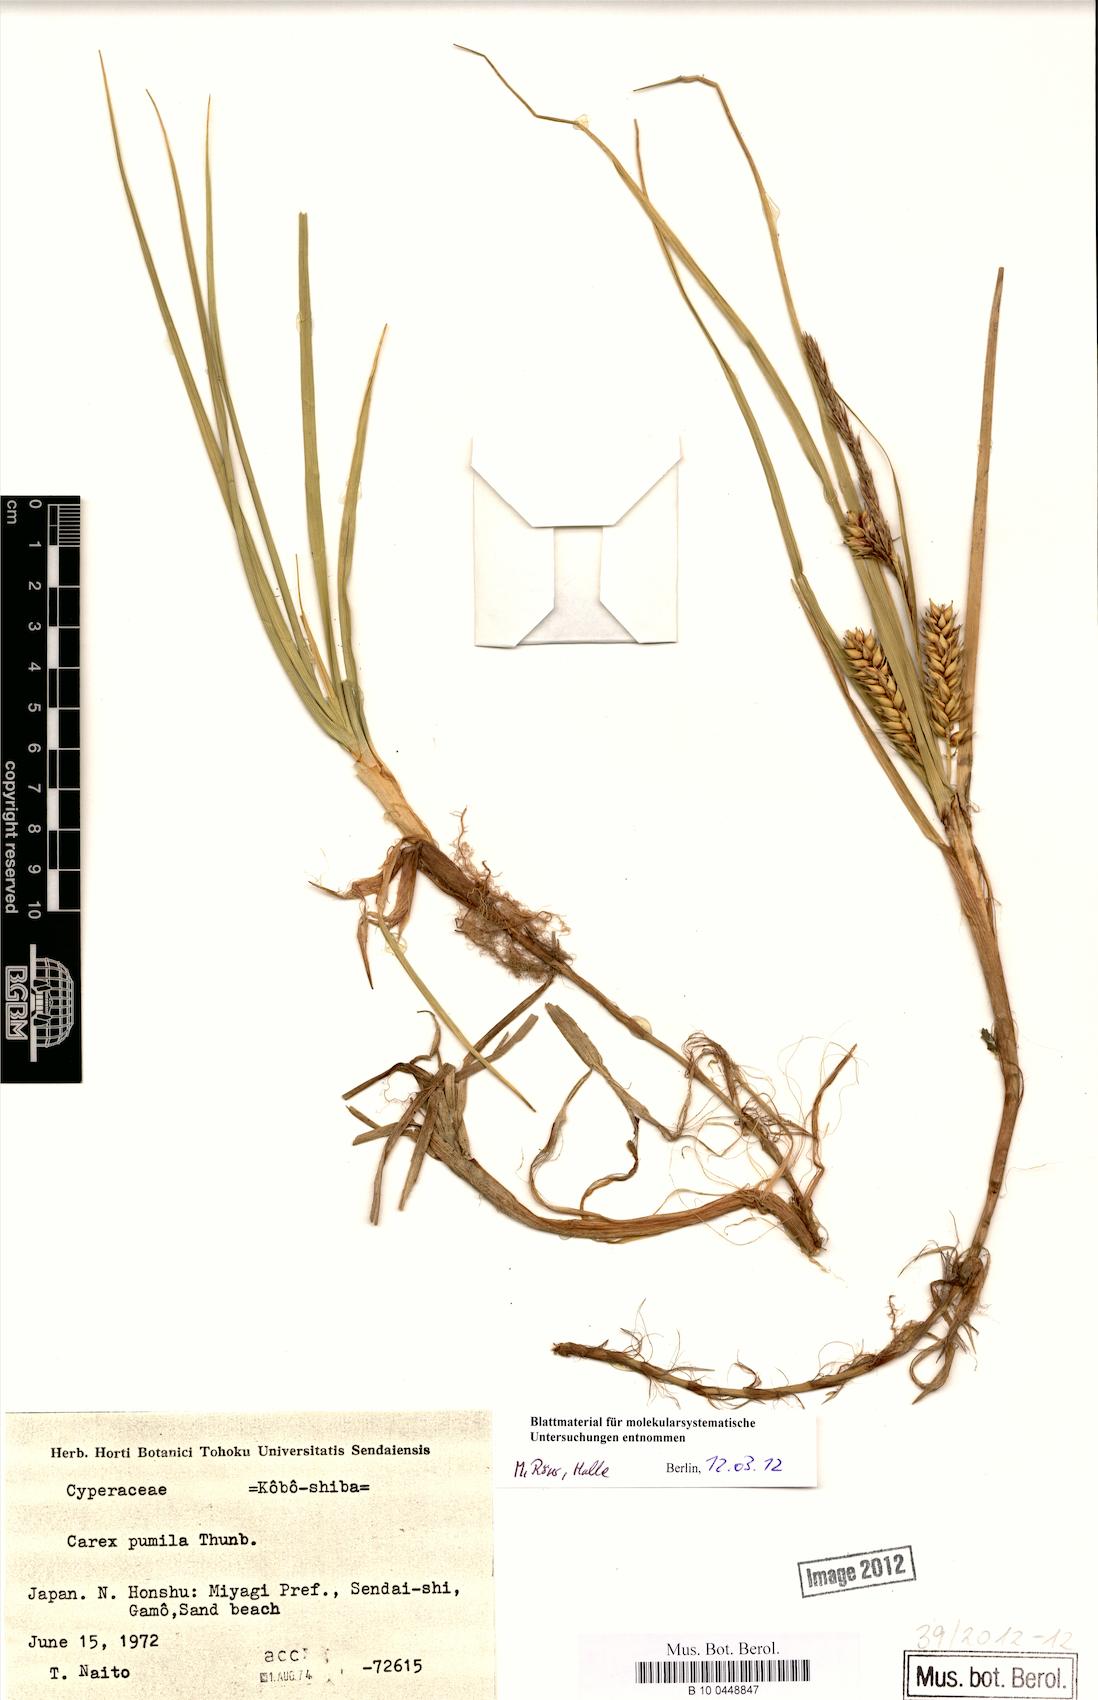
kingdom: Plantae
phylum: Tracheophyta
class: Liliopsida
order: Poales
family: Cyperaceae
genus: Carex
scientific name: Carex pumila
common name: Dwarf sedge
